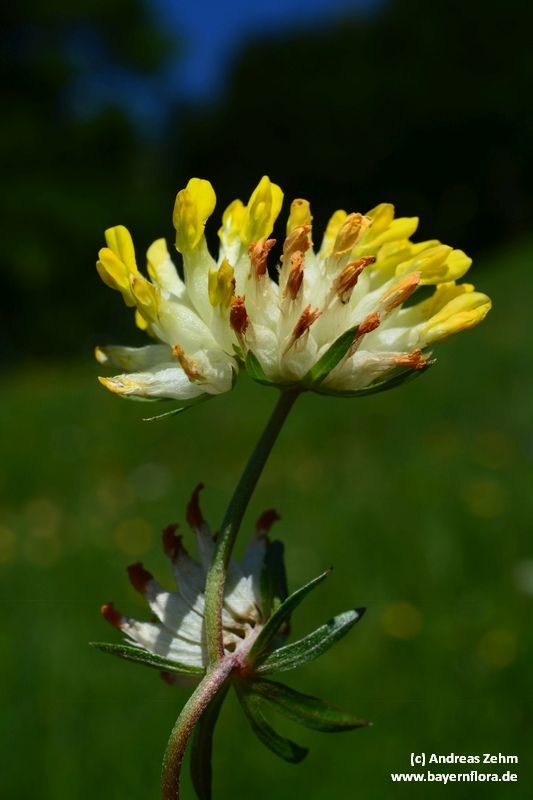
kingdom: Plantae
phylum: Tracheophyta
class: Magnoliopsida
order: Fabales
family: Fabaceae
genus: Anthyllis
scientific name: Anthyllis vulneraria
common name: Kidney vetch
